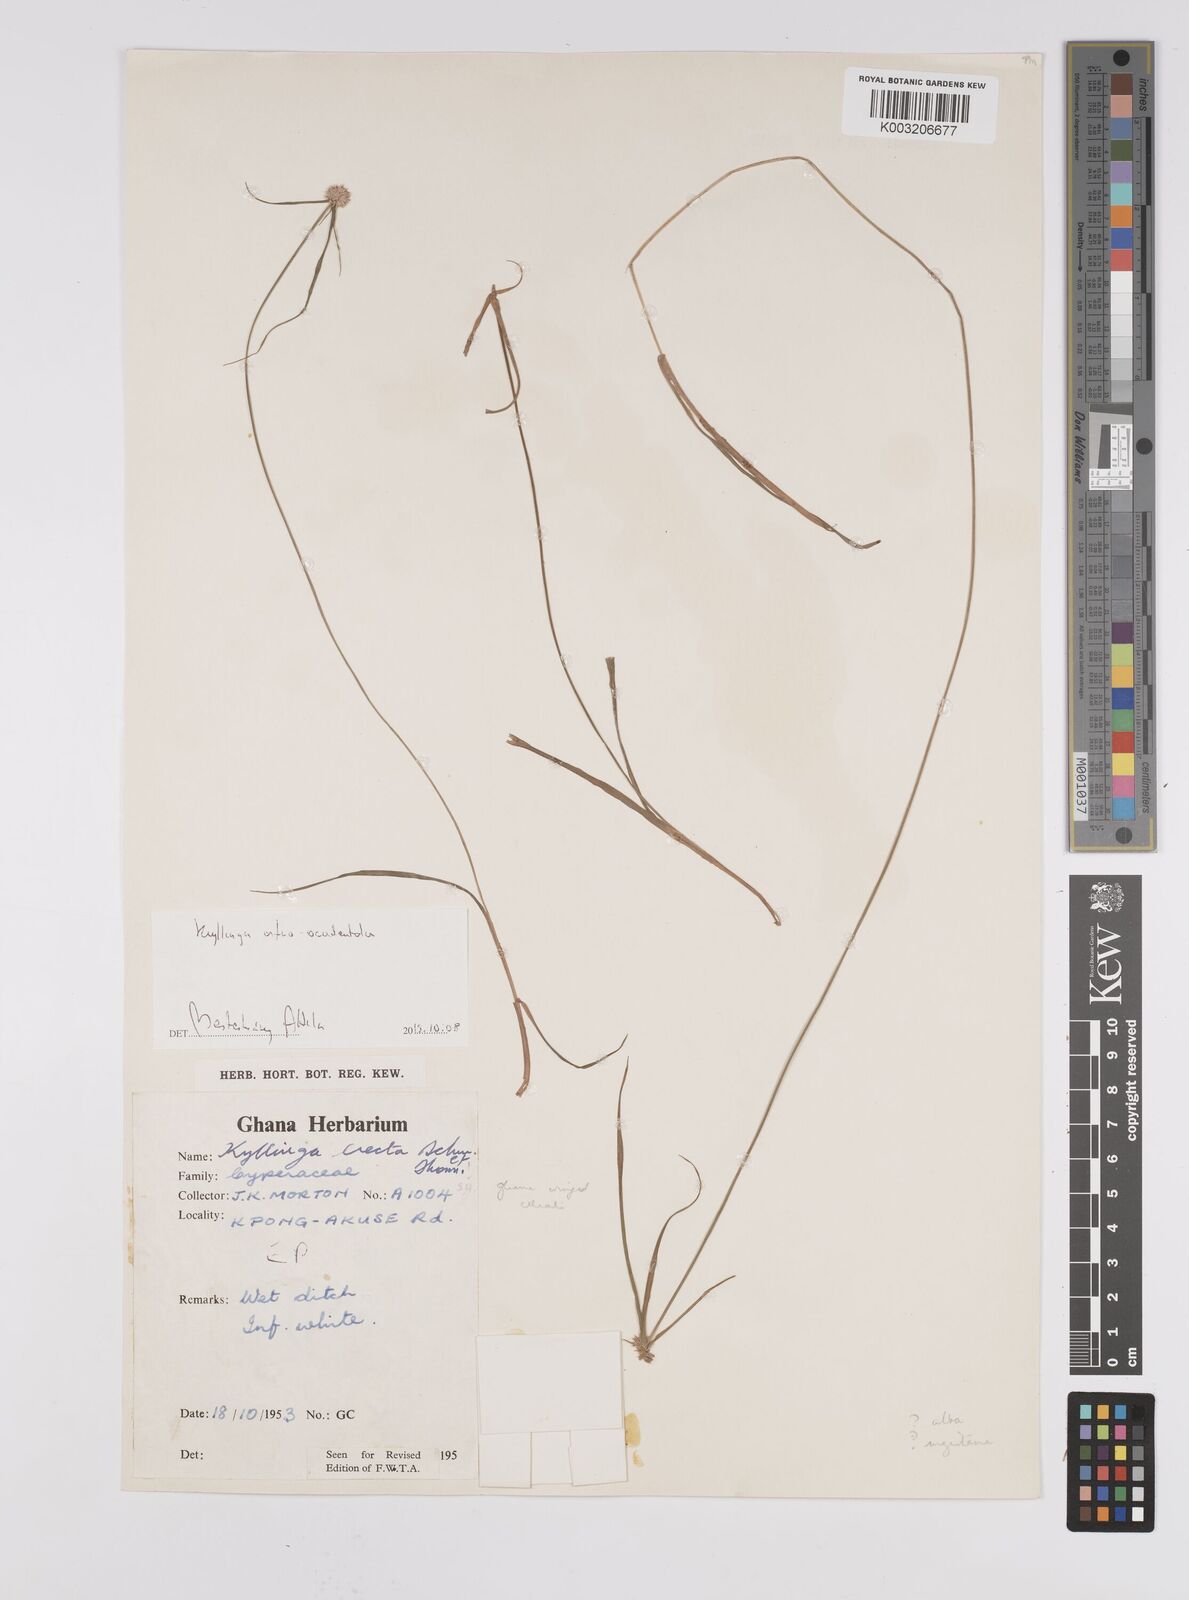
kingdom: Plantae
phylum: Tracheophyta
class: Liliopsida
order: Poales
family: Cyperaceae
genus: Cyperus
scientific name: Cyperus afro-occidentalis
